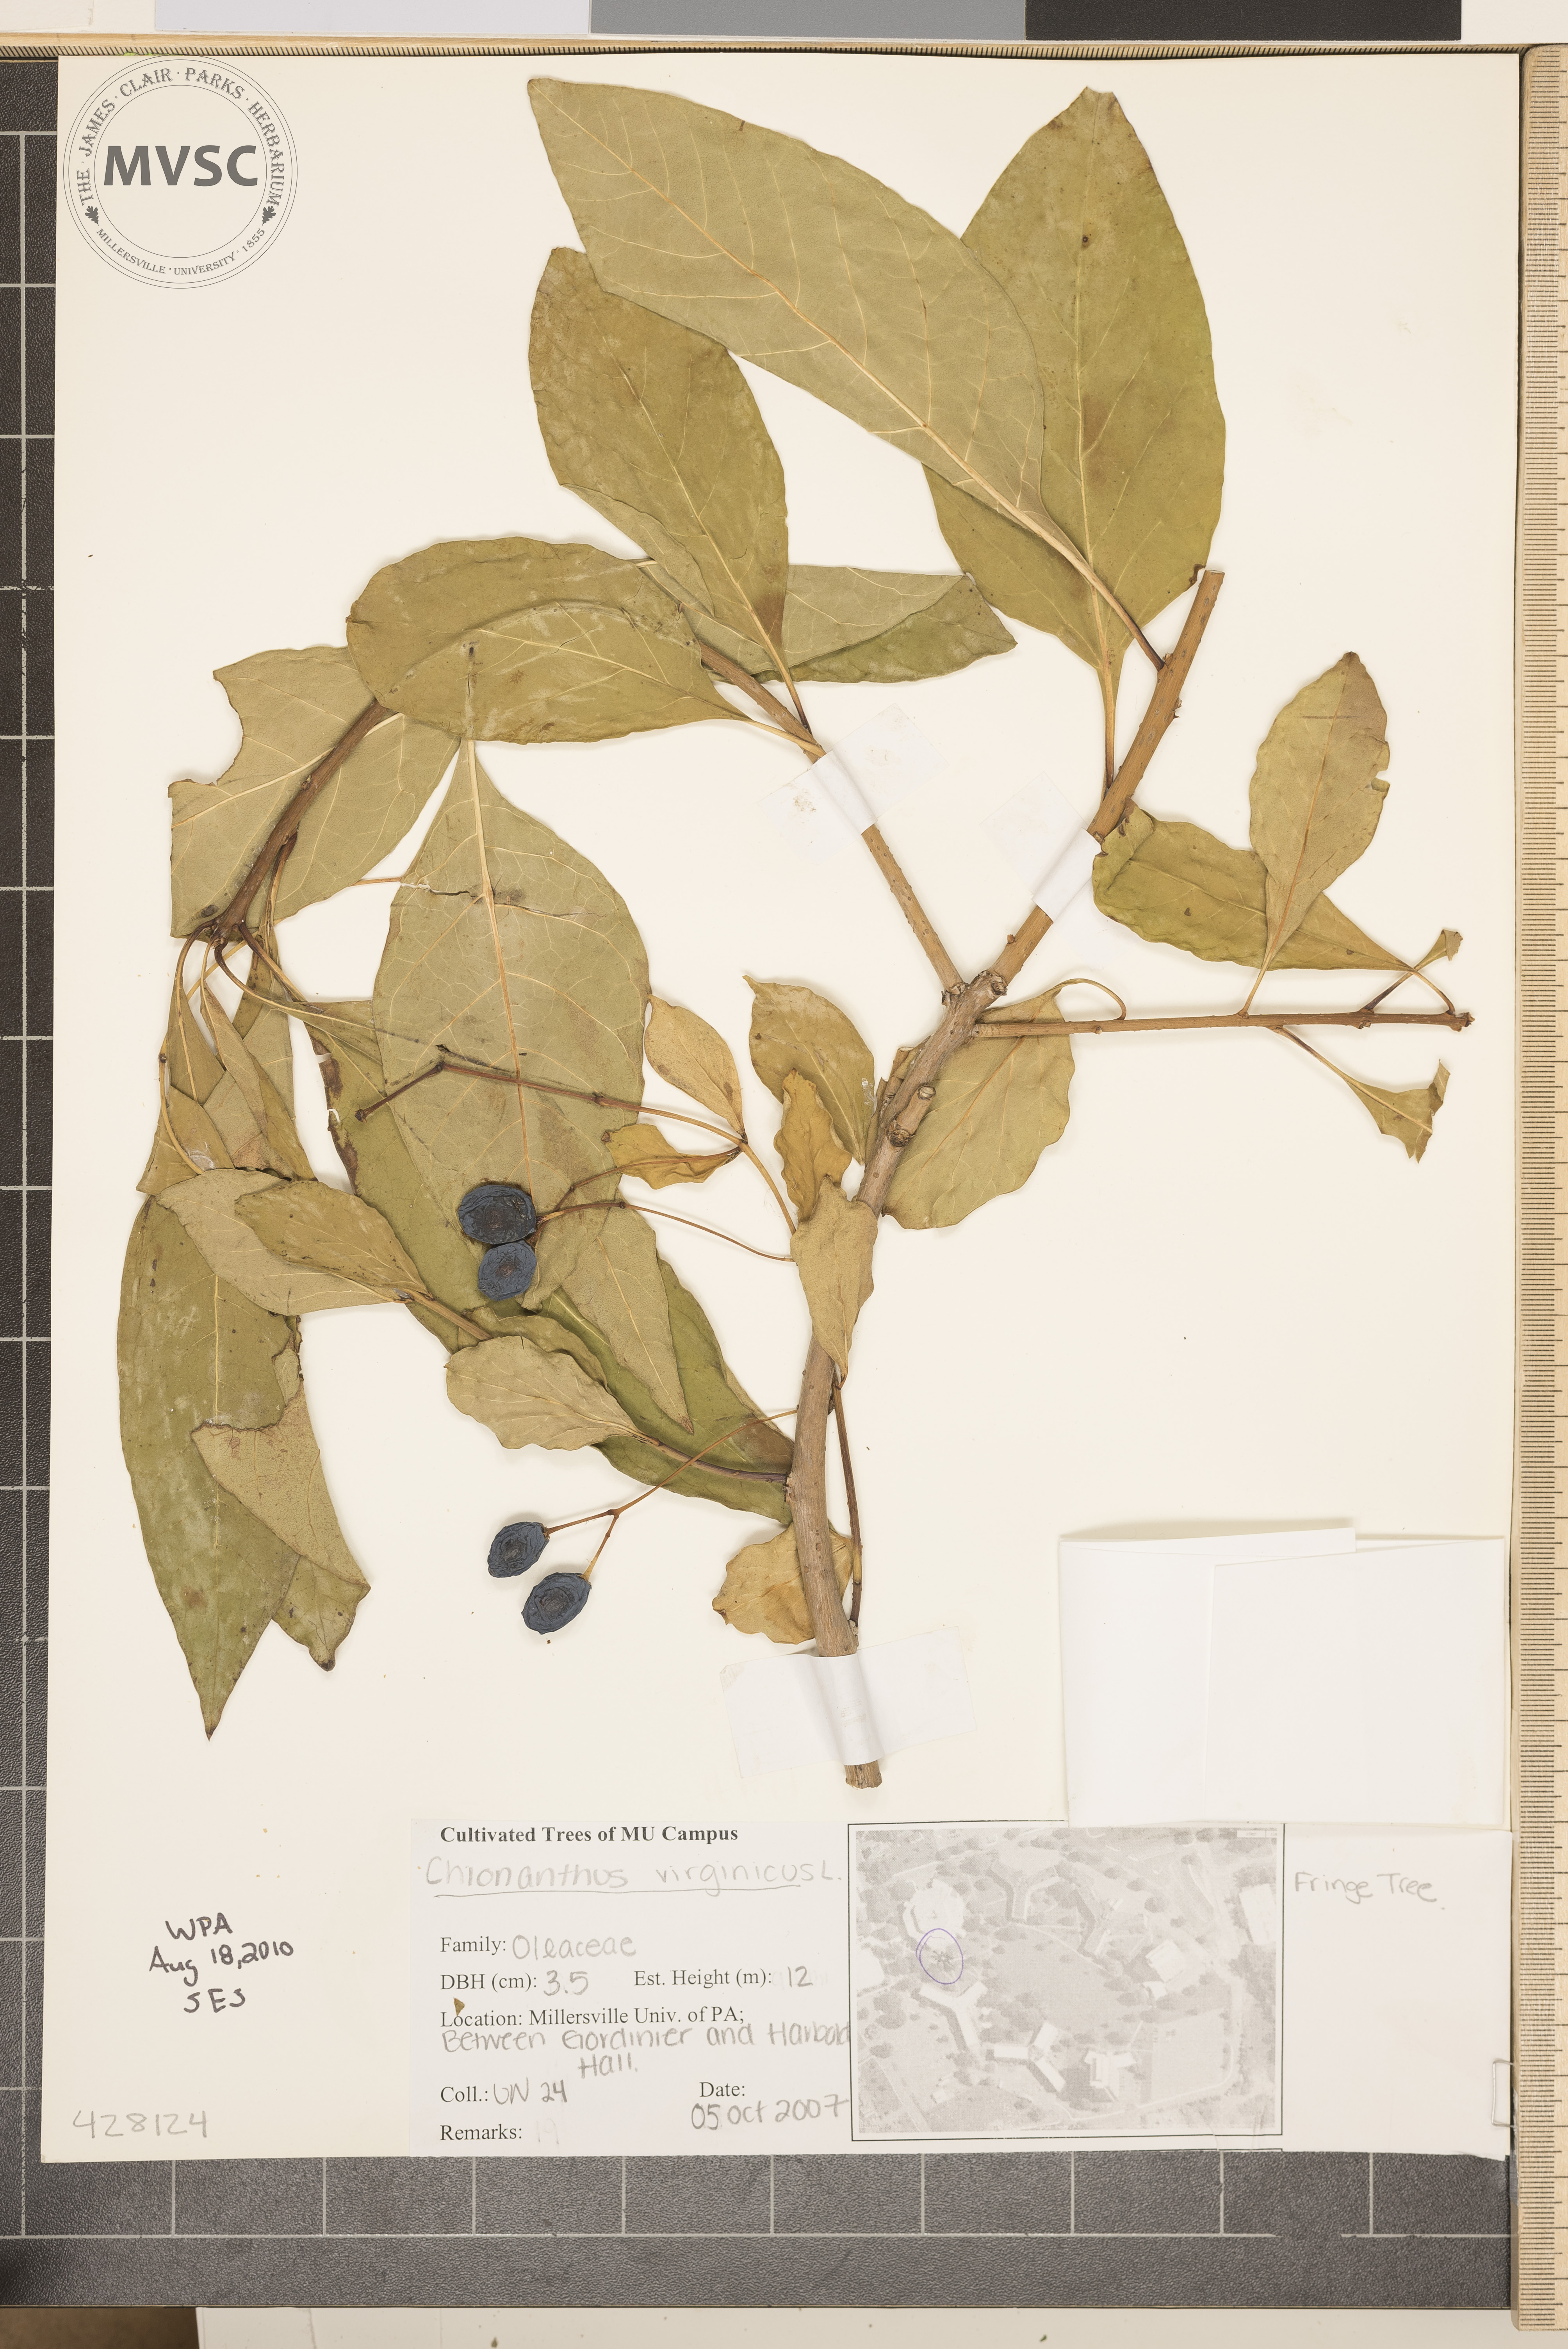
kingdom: Plantae
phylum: Tracheophyta
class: Magnoliopsida
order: Lamiales
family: Oleaceae
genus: Chionanthus
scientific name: Chionanthus virginicus
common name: Fringetree
